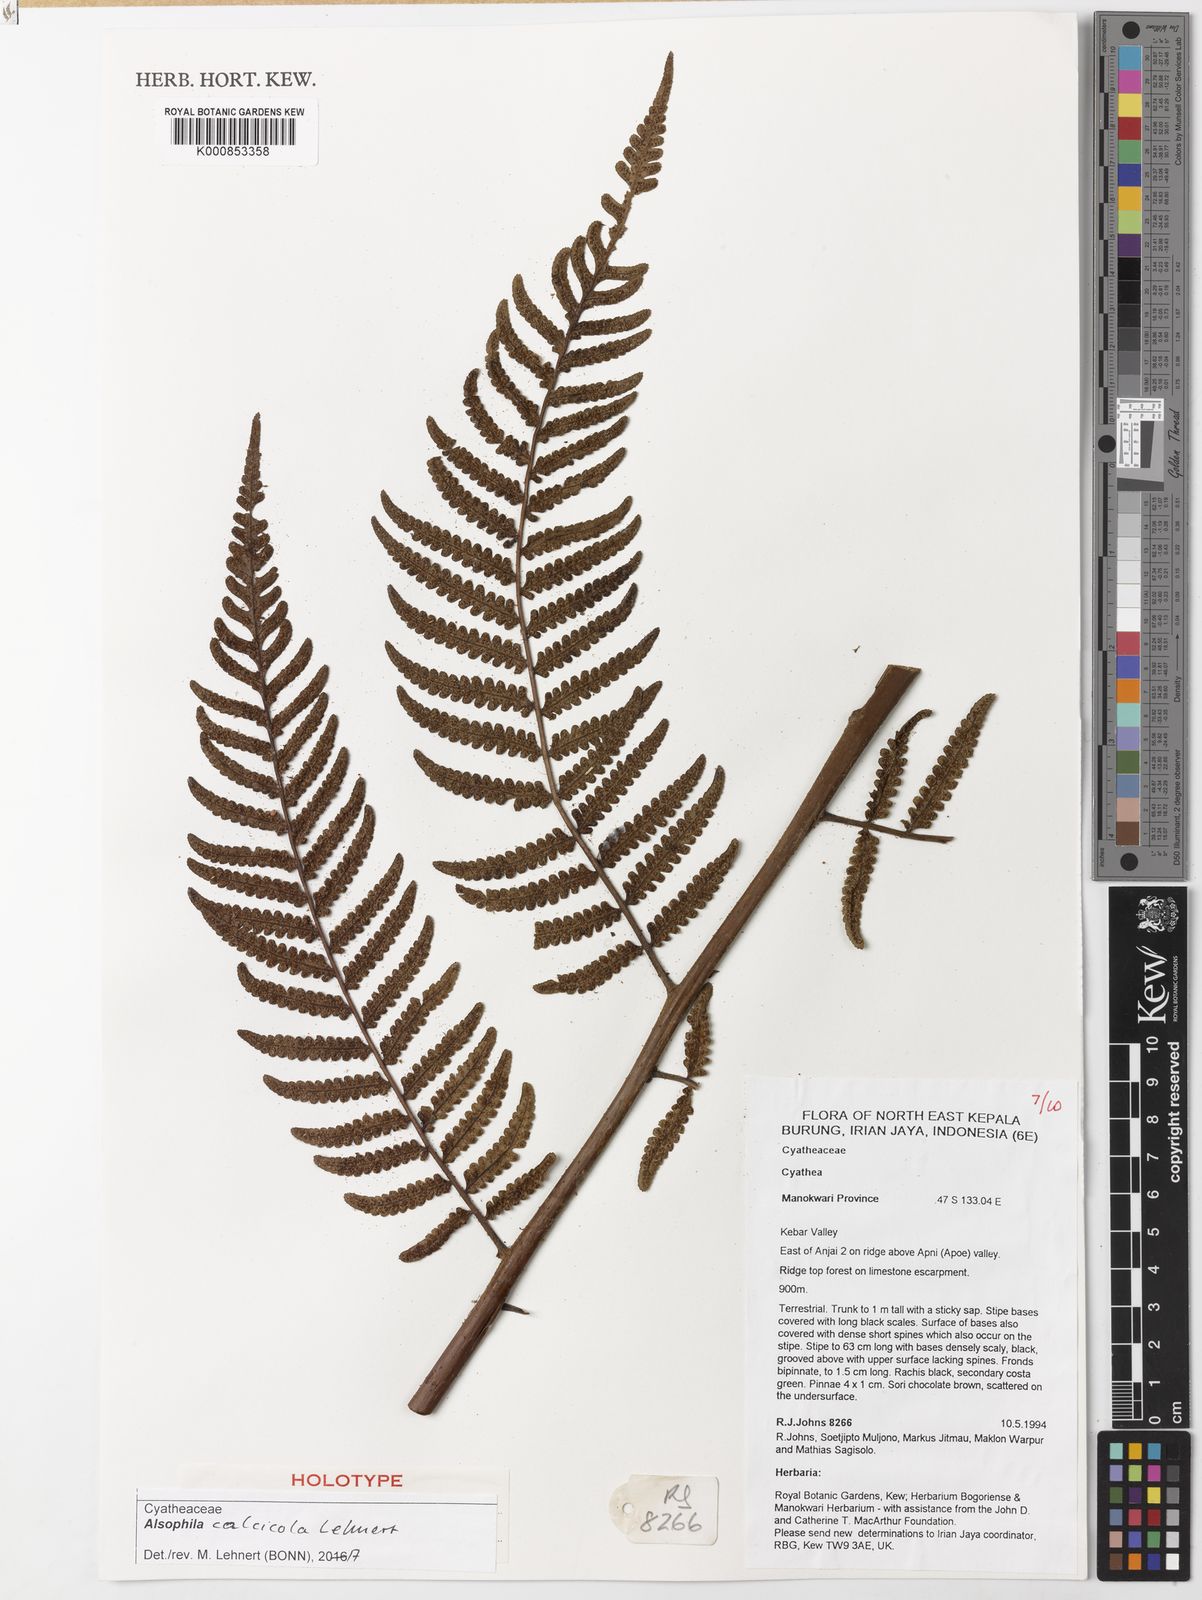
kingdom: Plantae
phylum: Tracheophyta
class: Polypodiopsida
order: Cyatheales
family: Cyatheaceae
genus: Alsophila
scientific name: Alsophila calcicola
